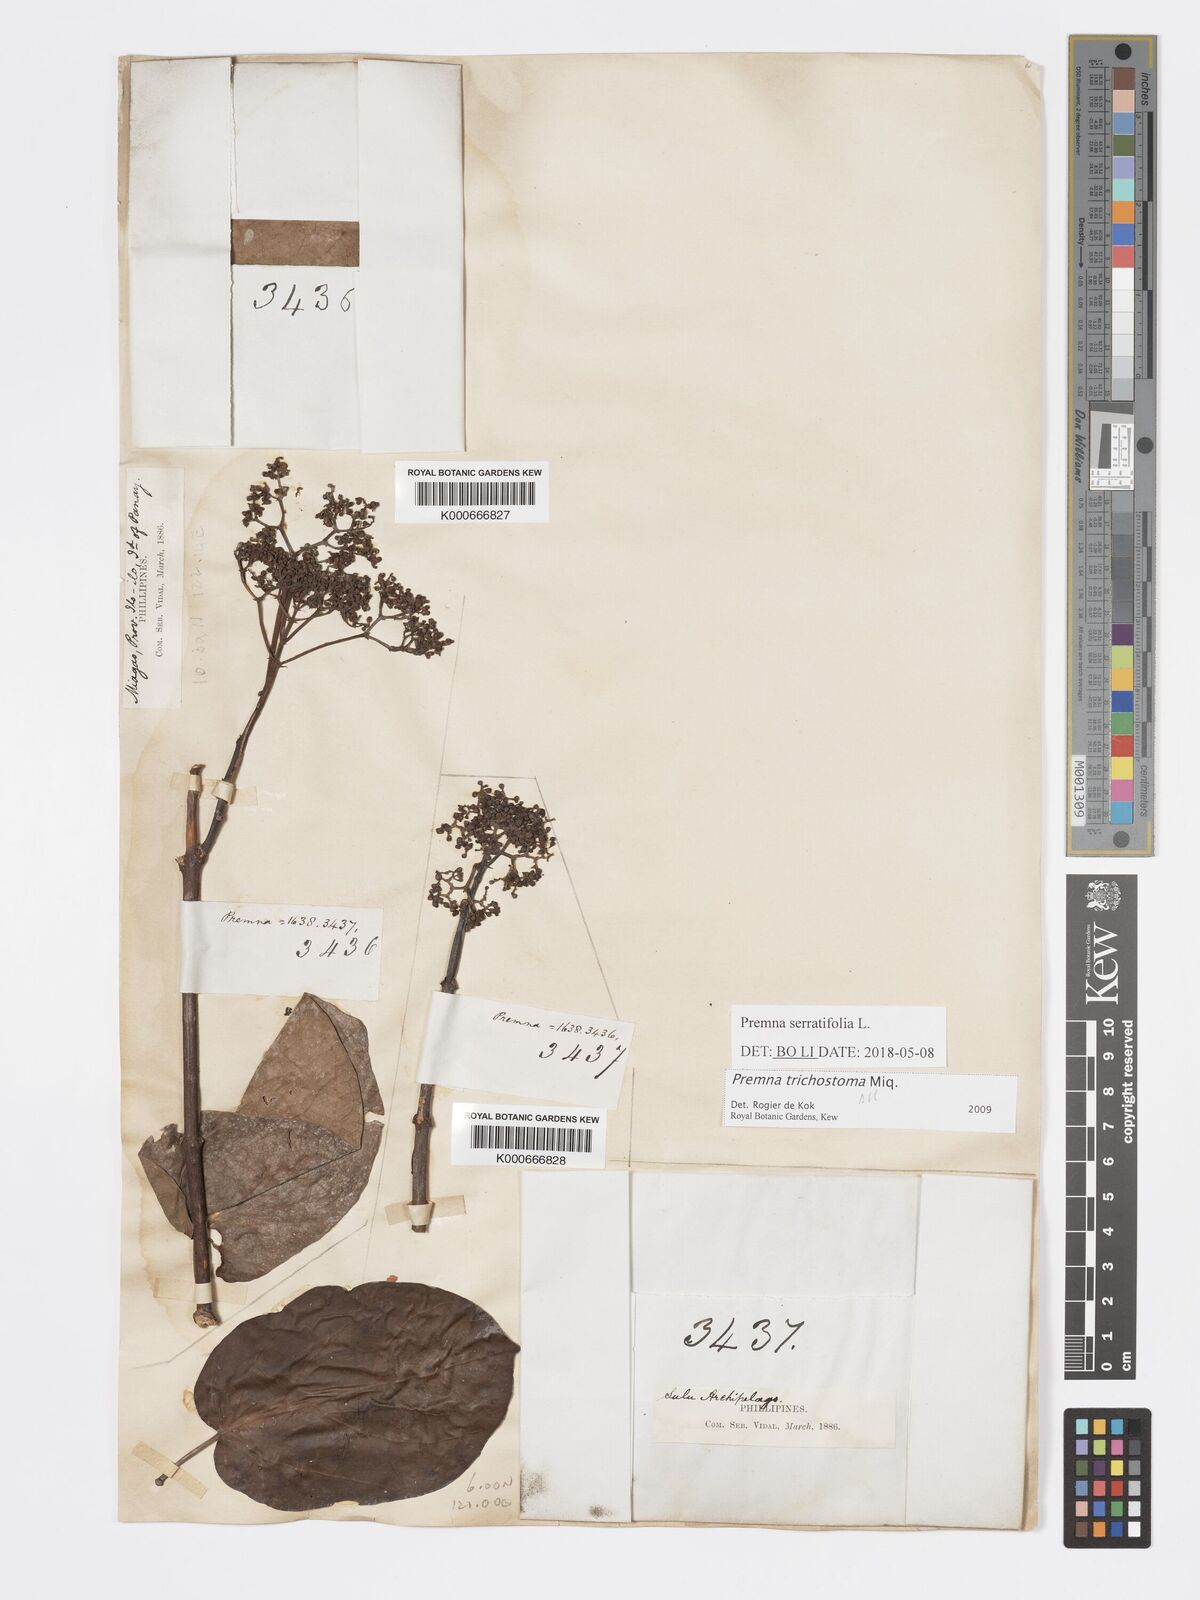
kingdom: Plantae
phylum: Tracheophyta
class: Magnoliopsida
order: Lamiales
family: Lamiaceae
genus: Premna
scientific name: Premna trichostoma
